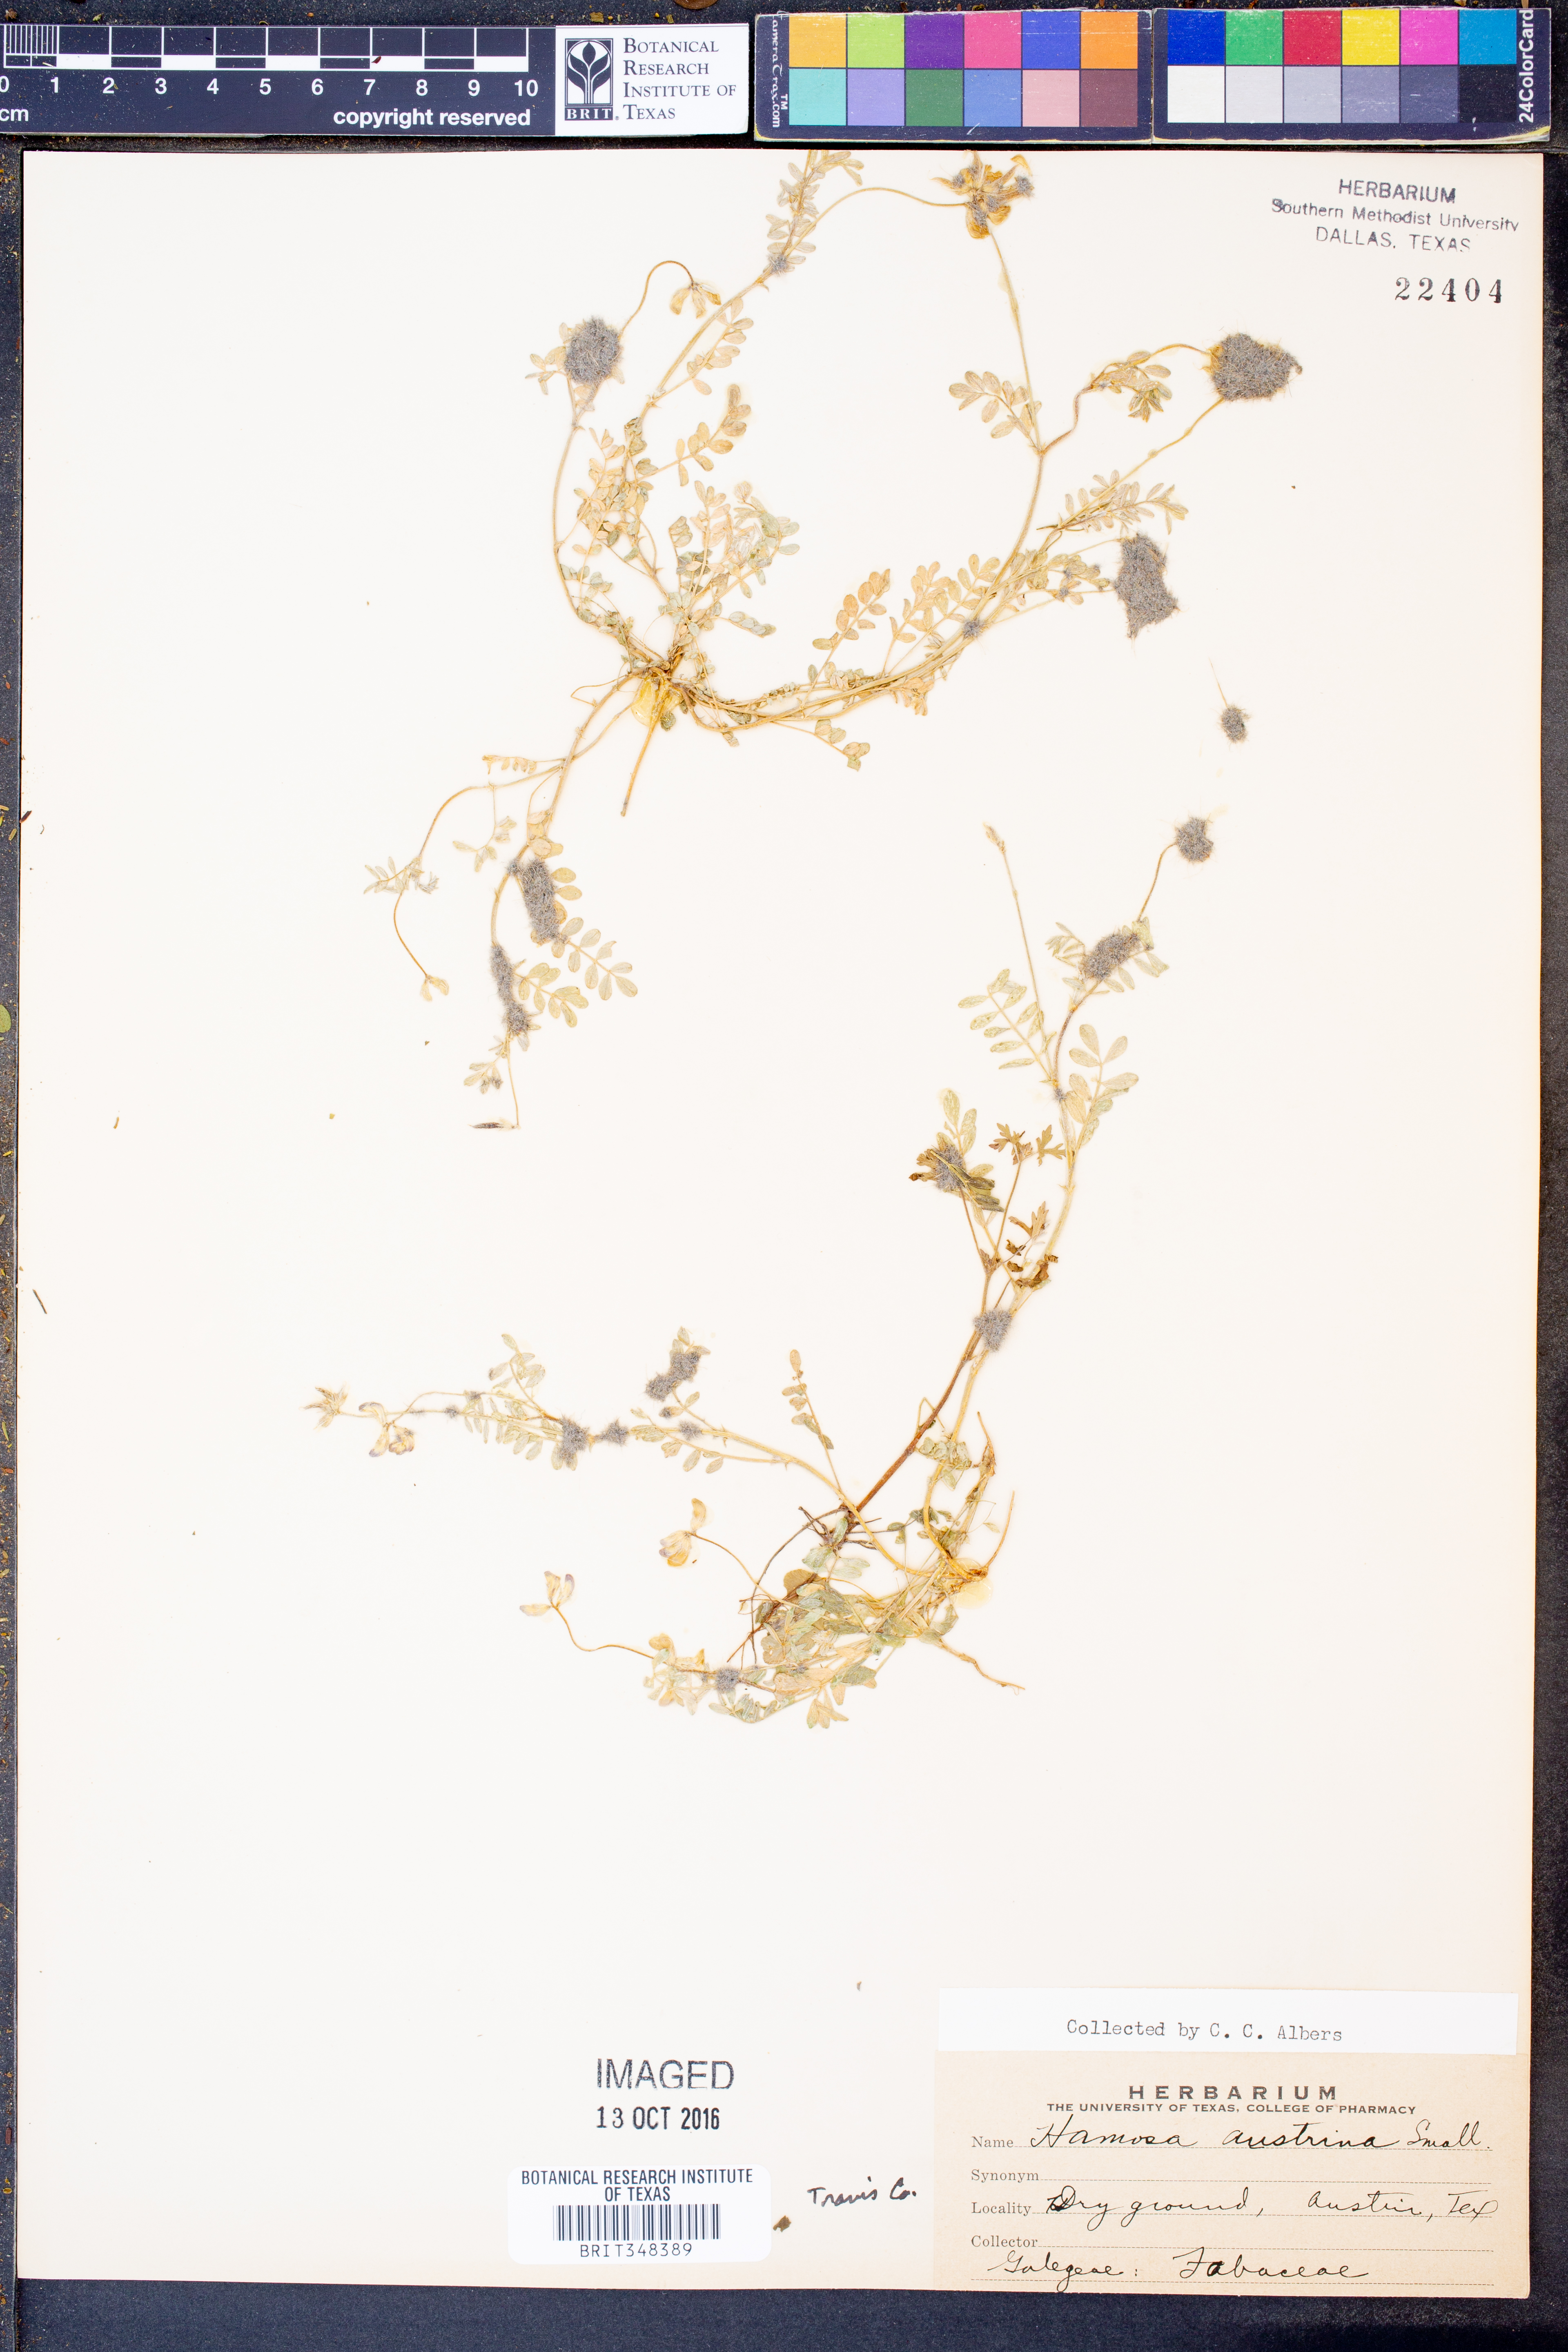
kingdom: Plantae
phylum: Tracheophyta
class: Magnoliopsida
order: Fabales
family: Fabaceae
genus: Astragalus
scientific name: Astragalus nuttallianus
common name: Smallflowered milkvetch
